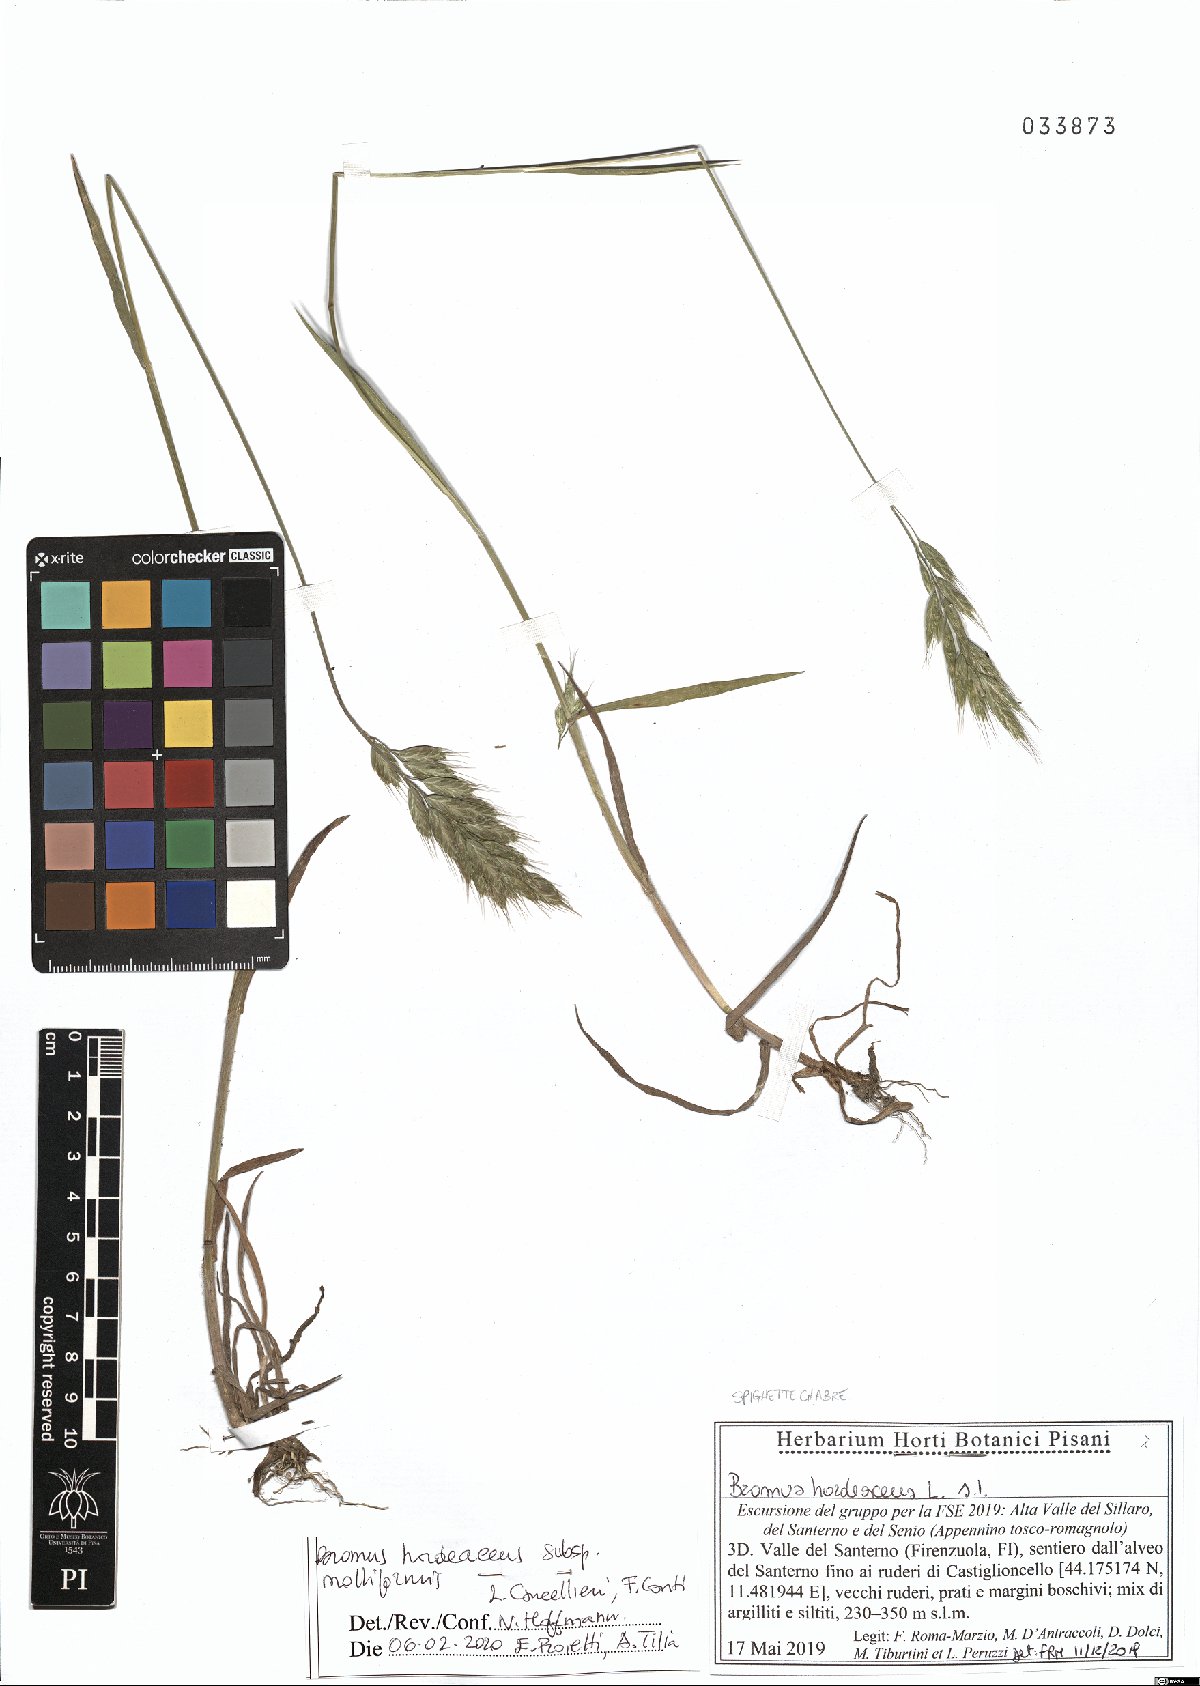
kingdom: Plantae
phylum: Tracheophyta
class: Liliopsida
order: Poales
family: Poaceae
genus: Bromus
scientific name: Bromus hordeaceus
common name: Soft brome
